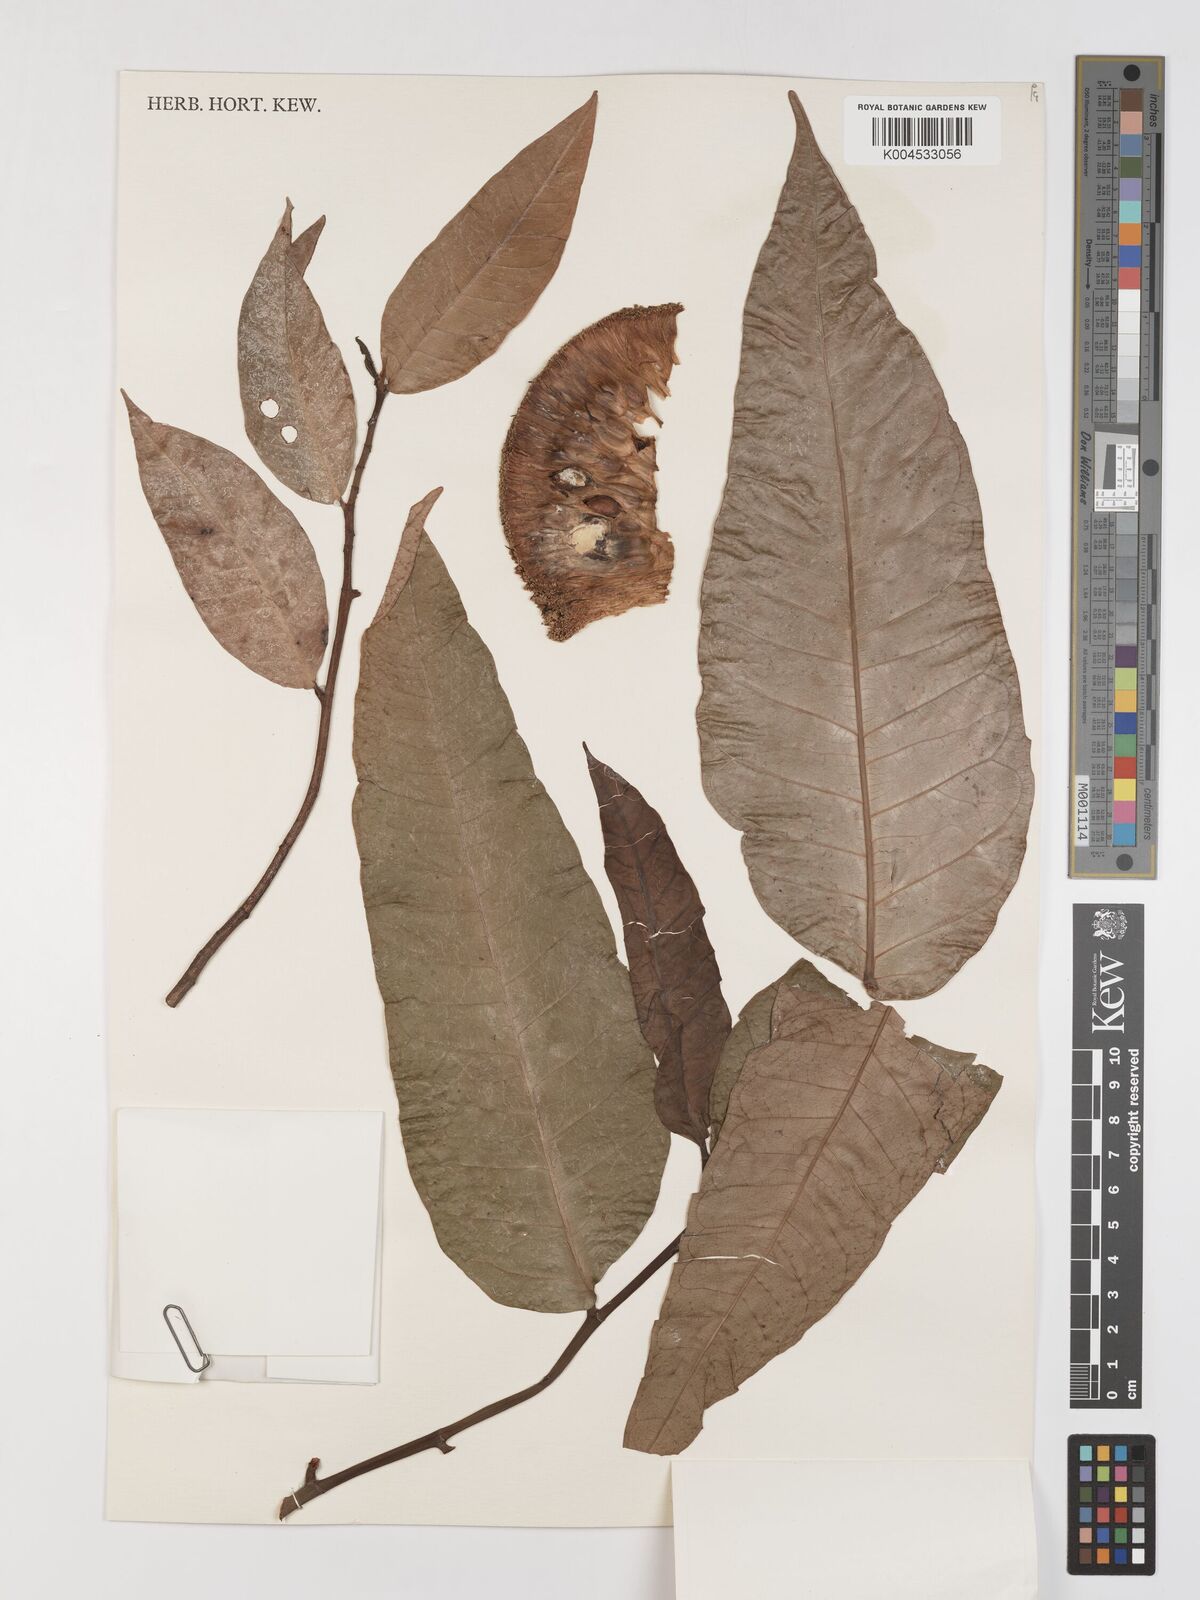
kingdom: Plantae
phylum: Tracheophyta
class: Magnoliopsida
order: Rosales
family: Moraceae
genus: Treculia
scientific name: Treculia africana
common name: African breadfruit
